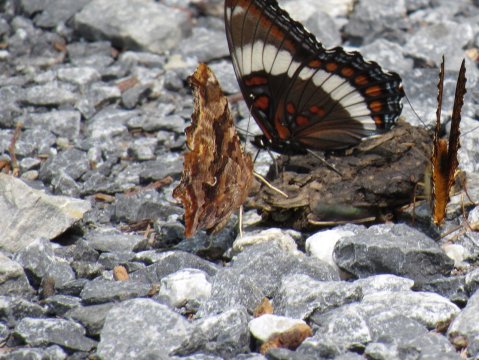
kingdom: Animalia
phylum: Arthropoda
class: Insecta
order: Lepidoptera
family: Nymphalidae
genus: Polygonia
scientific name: Polygonia comma
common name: Eastern Comma
